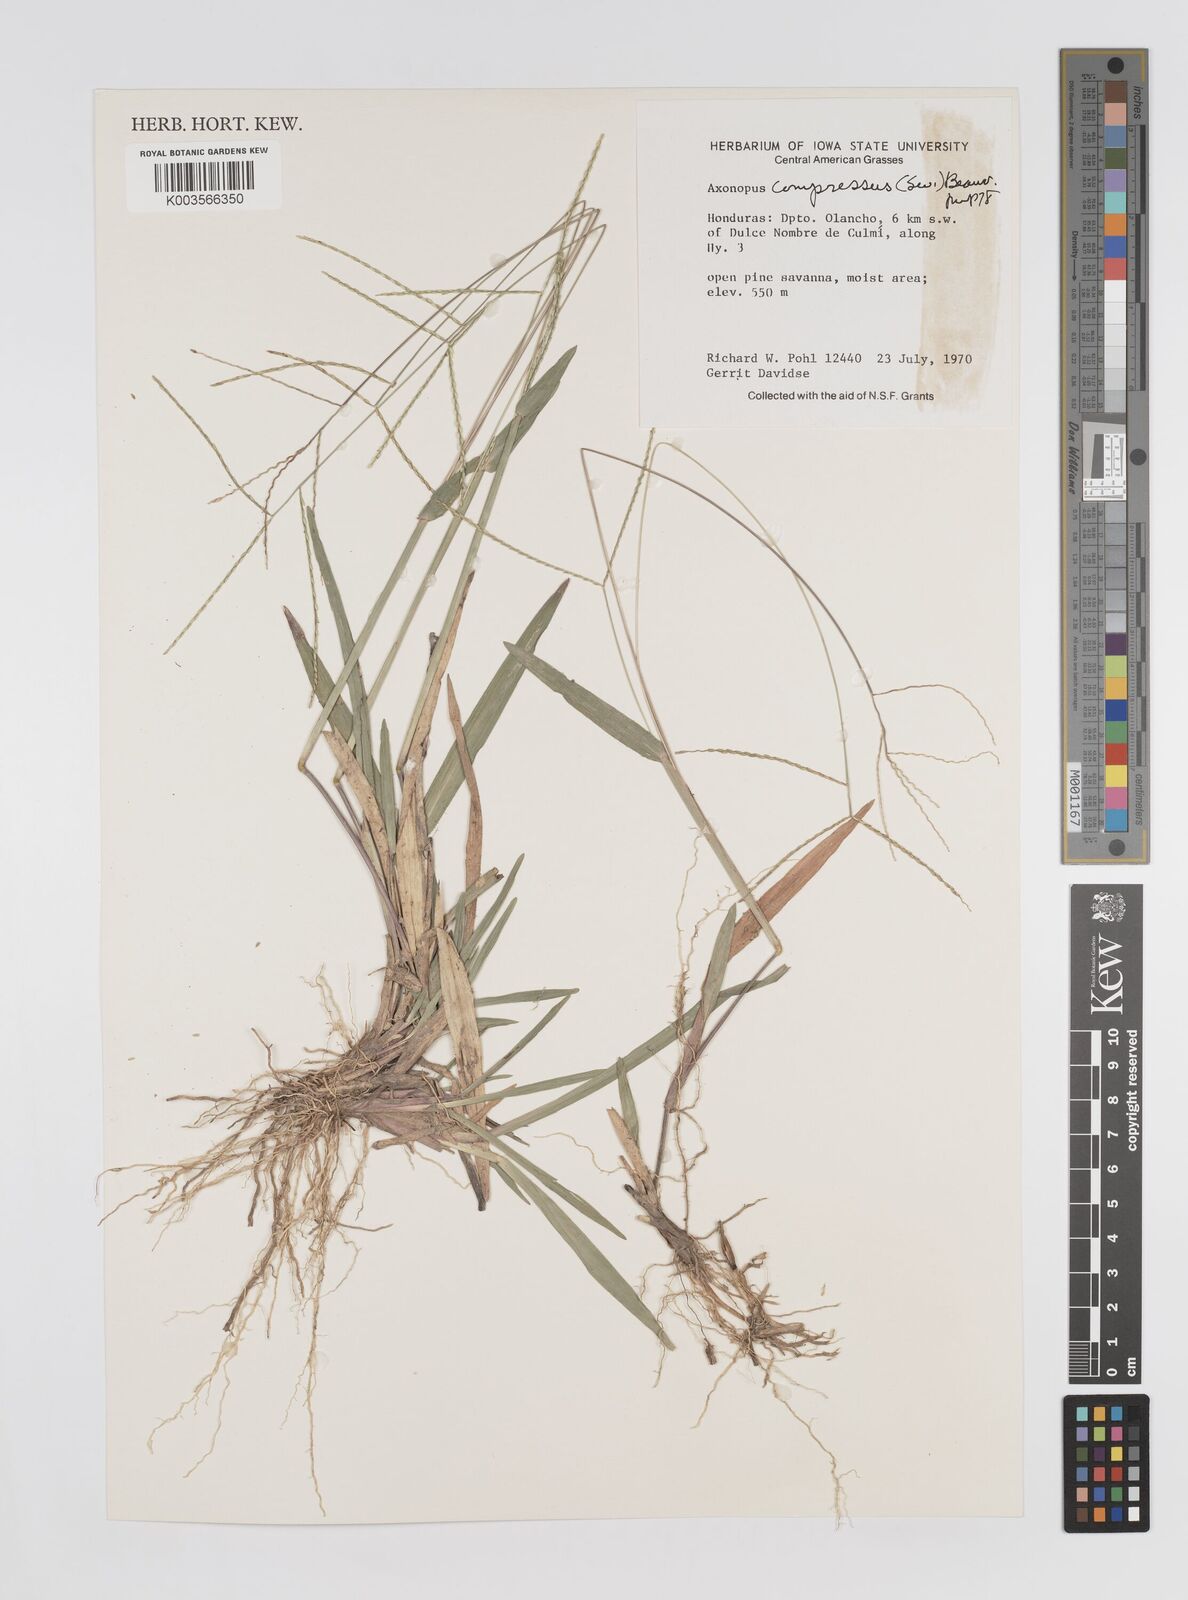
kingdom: Plantae
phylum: Tracheophyta
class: Liliopsida
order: Poales
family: Poaceae
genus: Axonopus
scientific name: Axonopus compressus
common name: American carpet grass
